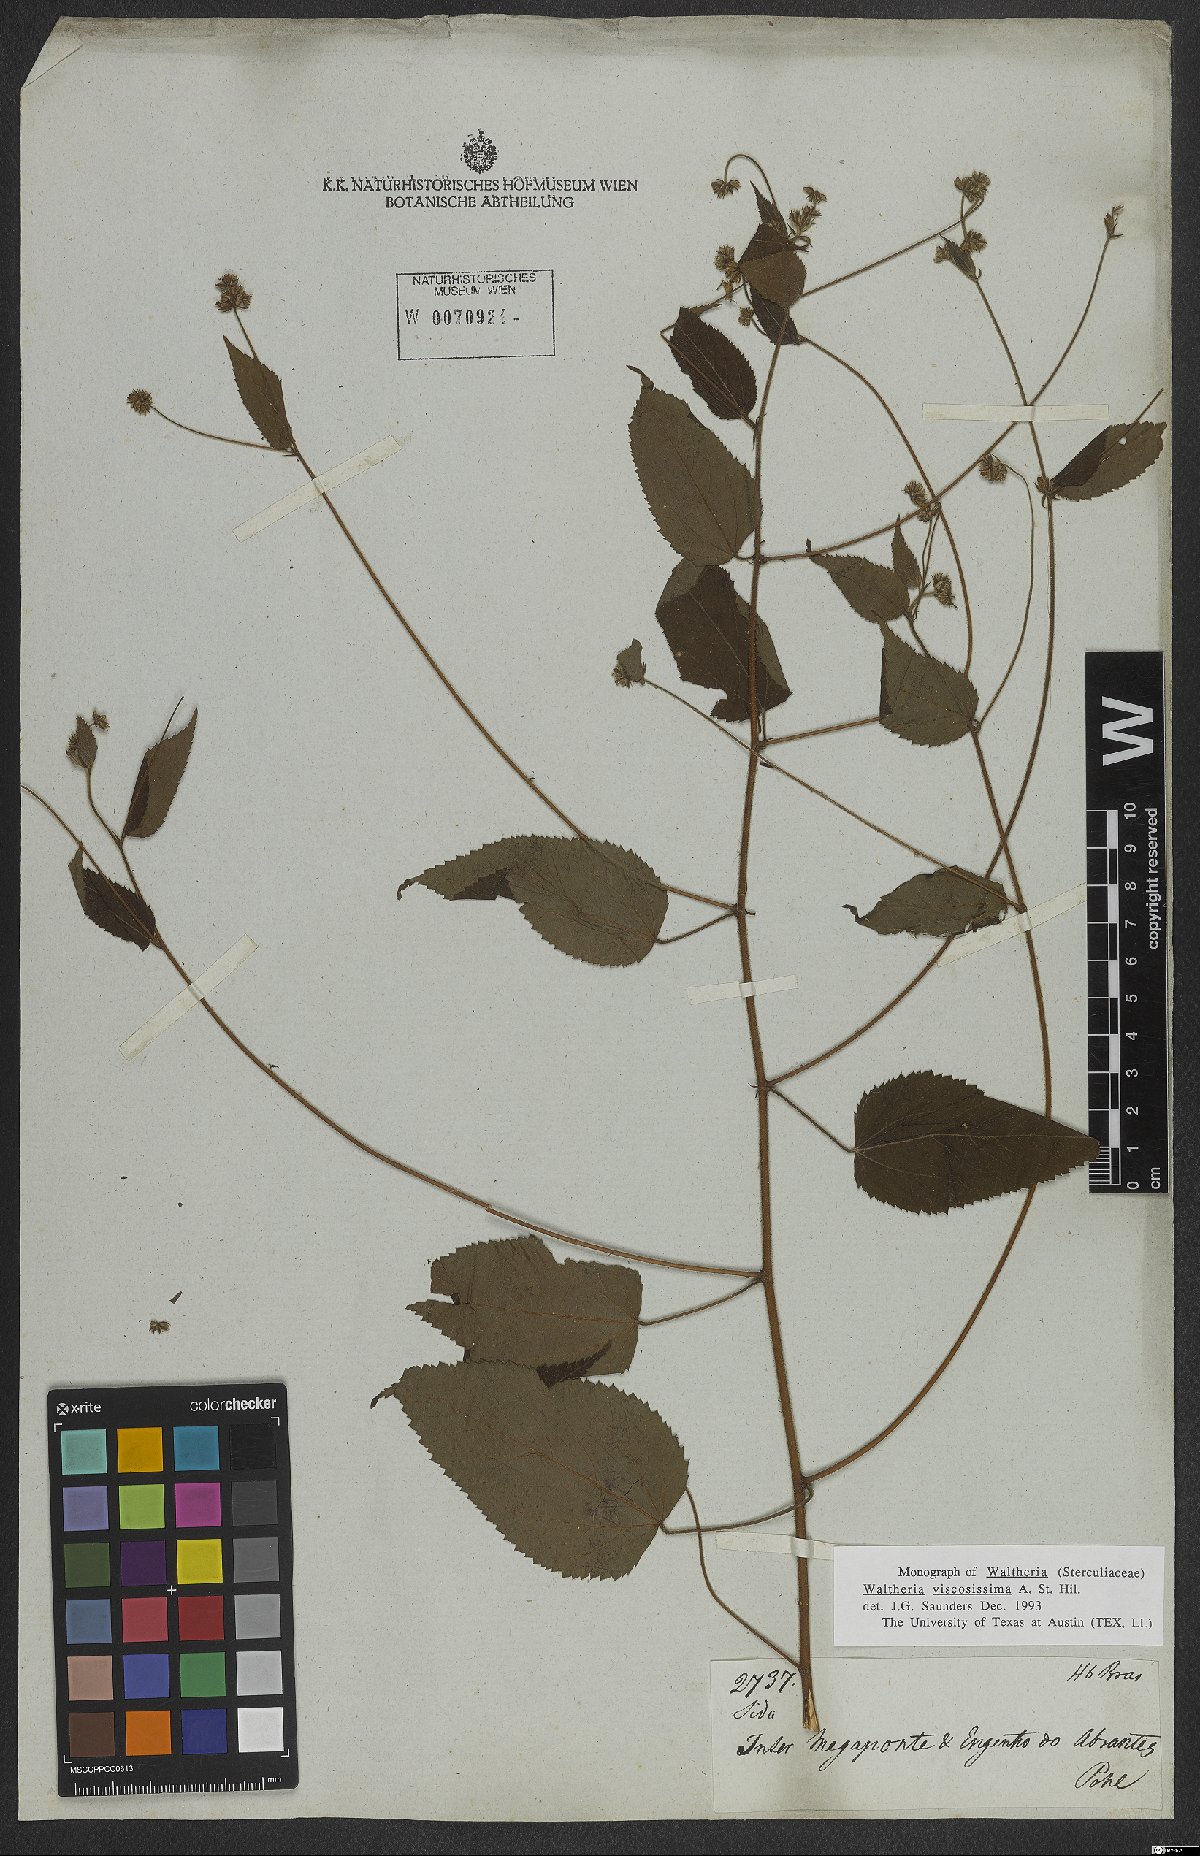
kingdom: Plantae
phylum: Tracheophyta
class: Magnoliopsida
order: Malvales
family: Malvaceae
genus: Waltheria
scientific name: Waltheria viscosissima
